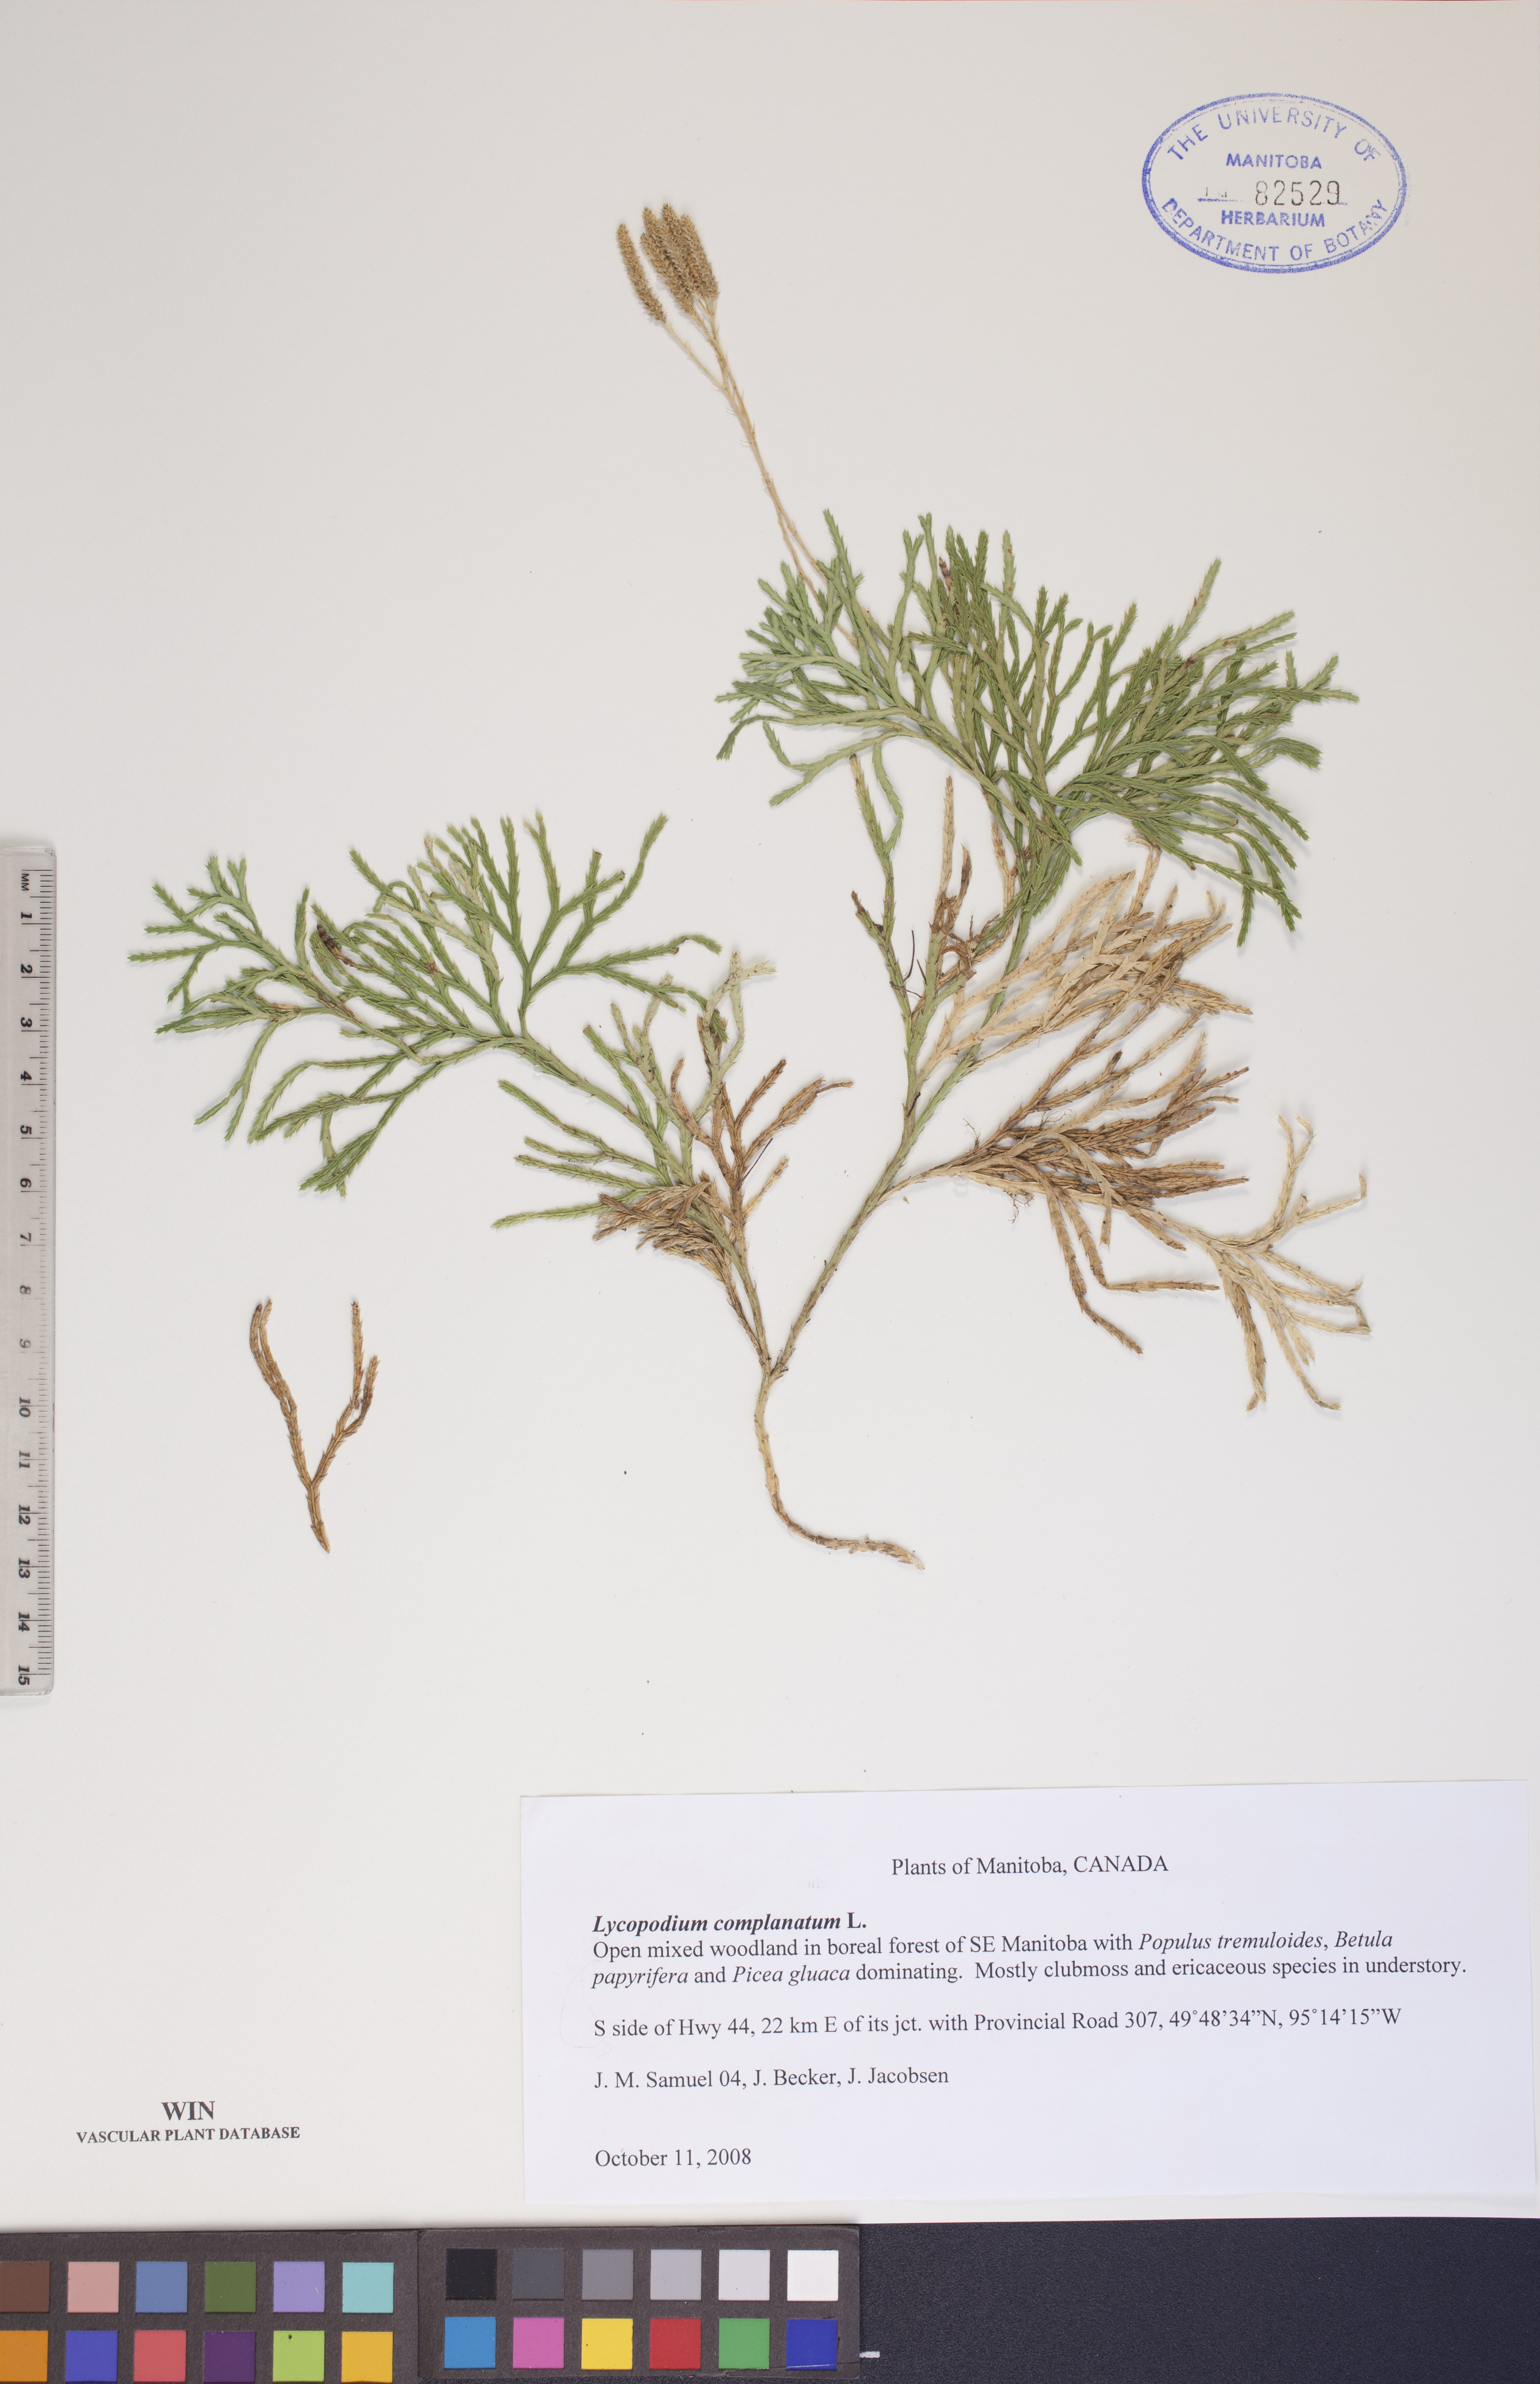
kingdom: Plantae
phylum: Tracheophyta
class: Lycopodiopsida
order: Lycopodiales
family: Lycopodiaceae
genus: Diphasiastrum
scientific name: Diphasiastrum complanatum
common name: Northern running-pine
